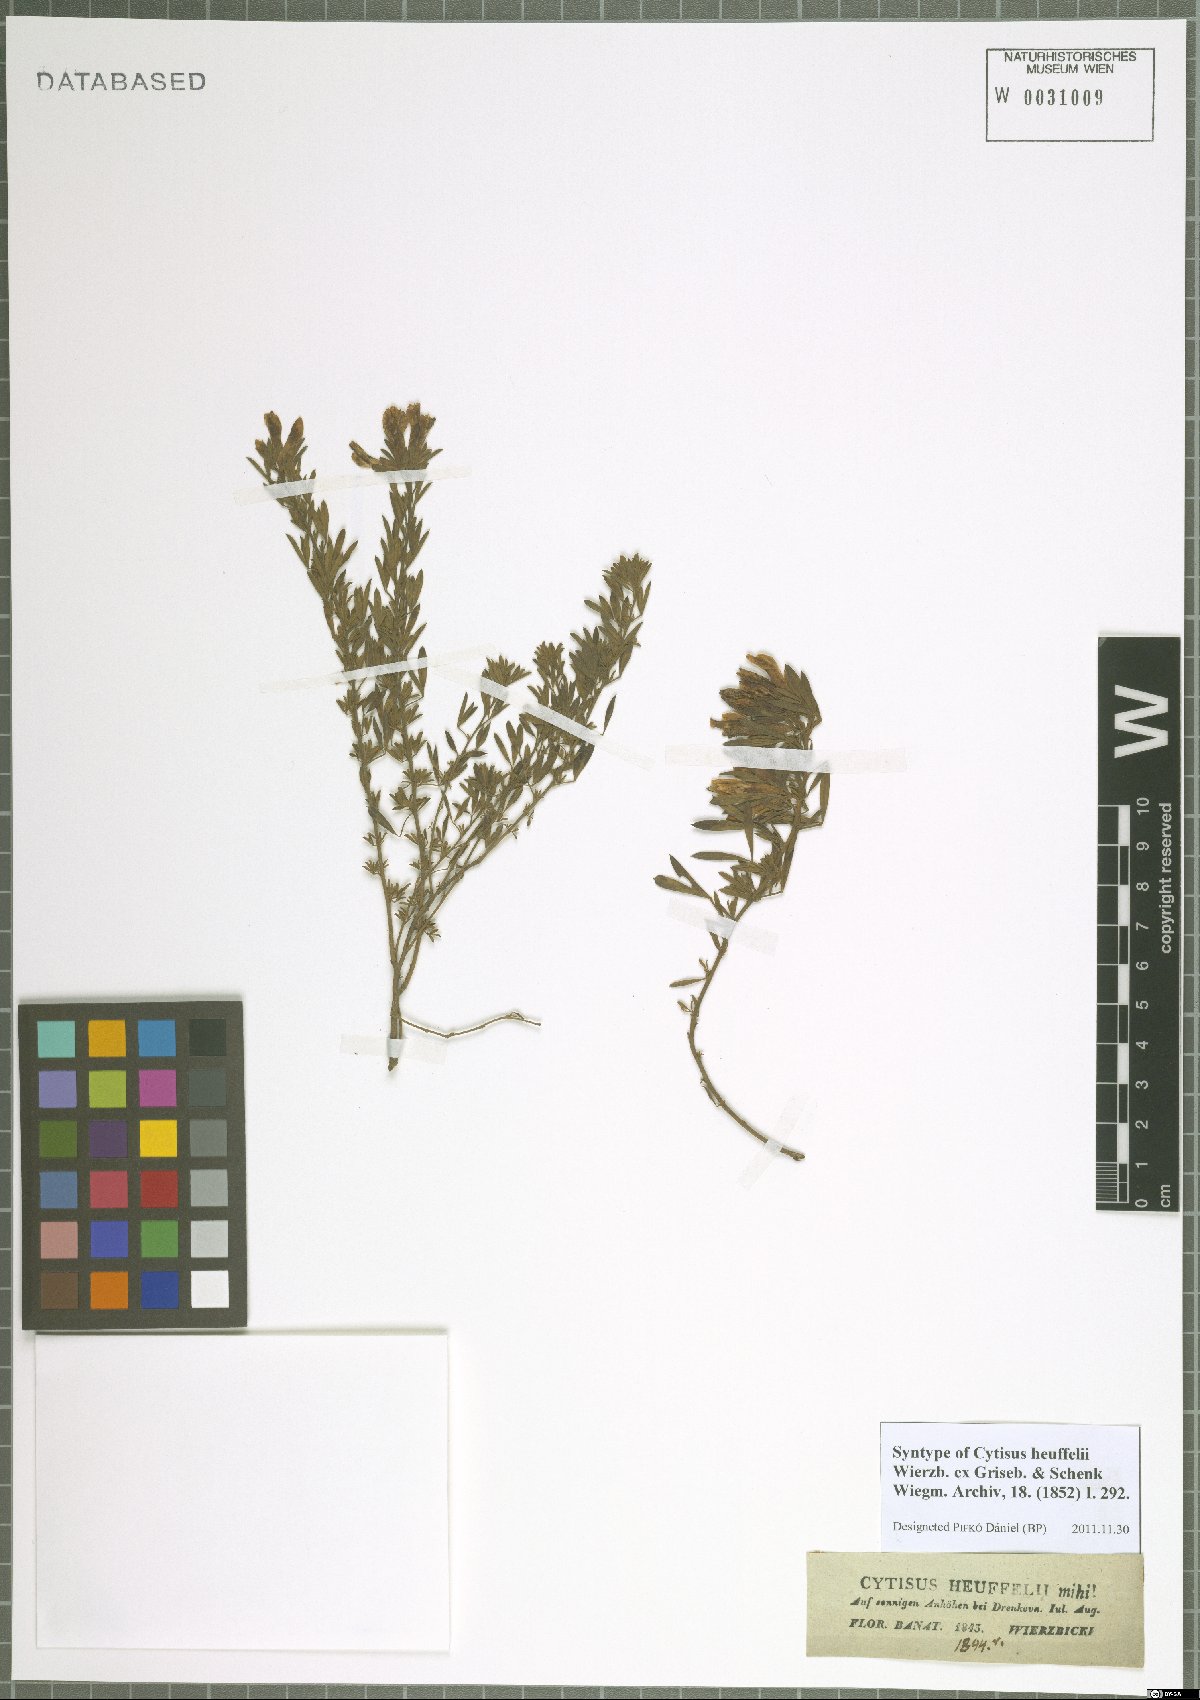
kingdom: Plantae
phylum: Tracheophyta
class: Magnoliopsida
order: Fabales
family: Fabaceae
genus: Cytisophyllum
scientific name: Cytisophyllum Cytisus heuffelii
